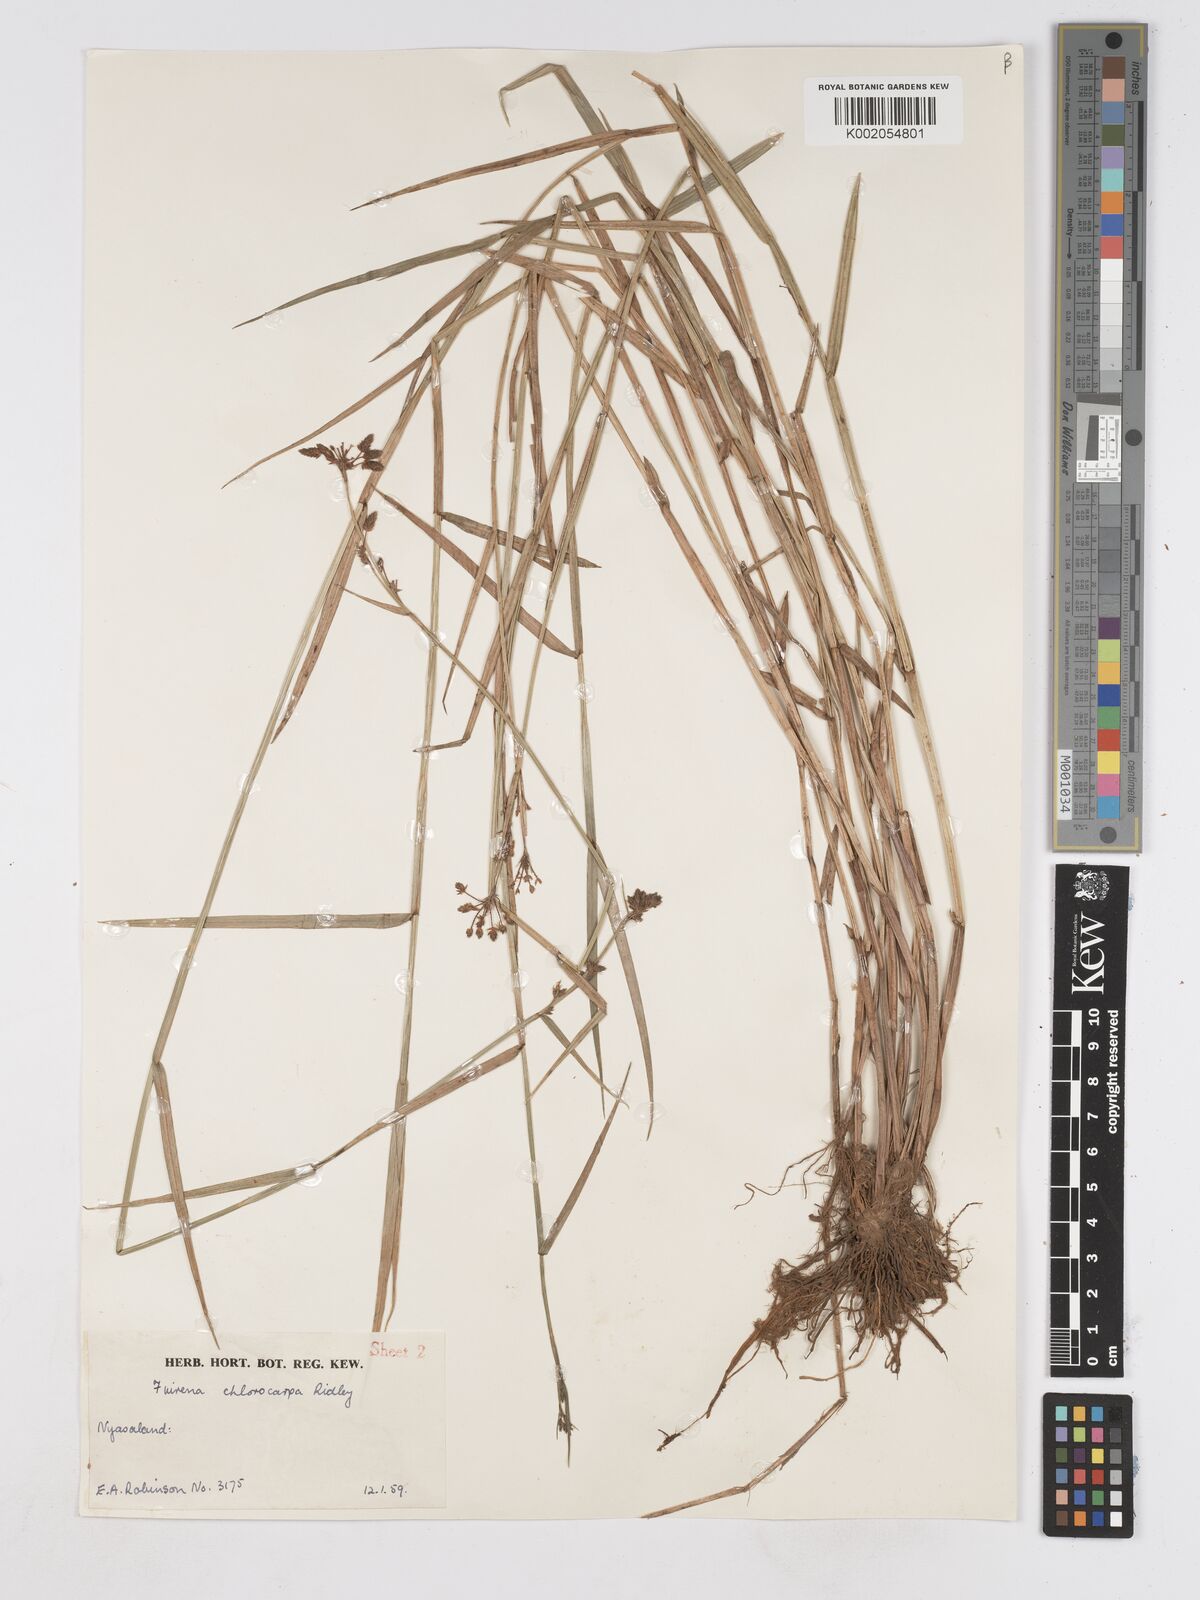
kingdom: Plantae
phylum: Tracheophyta
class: Liliopsida
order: Poales
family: Cyperaceae
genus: Fuirena
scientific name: Fuirena stricta
